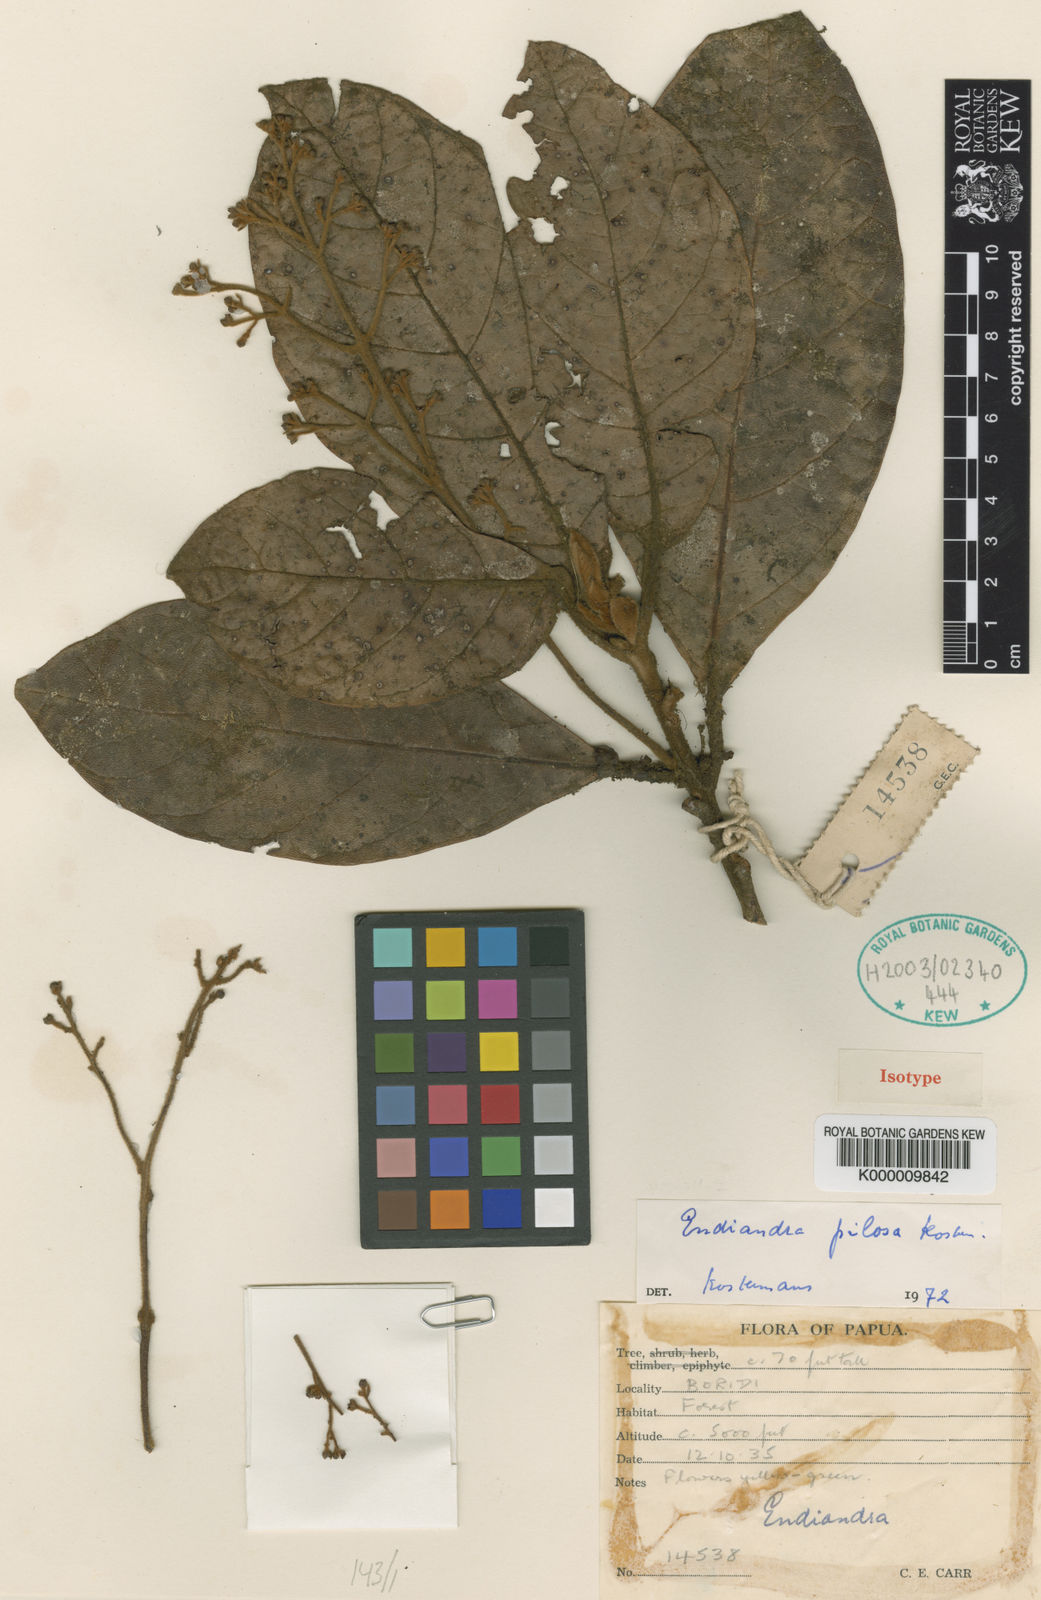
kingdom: Plantae
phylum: Tracheophyta
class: Magnoliopsida
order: Laurales
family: Lauraceae
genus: Endiandra
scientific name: Endiandra pilosa
